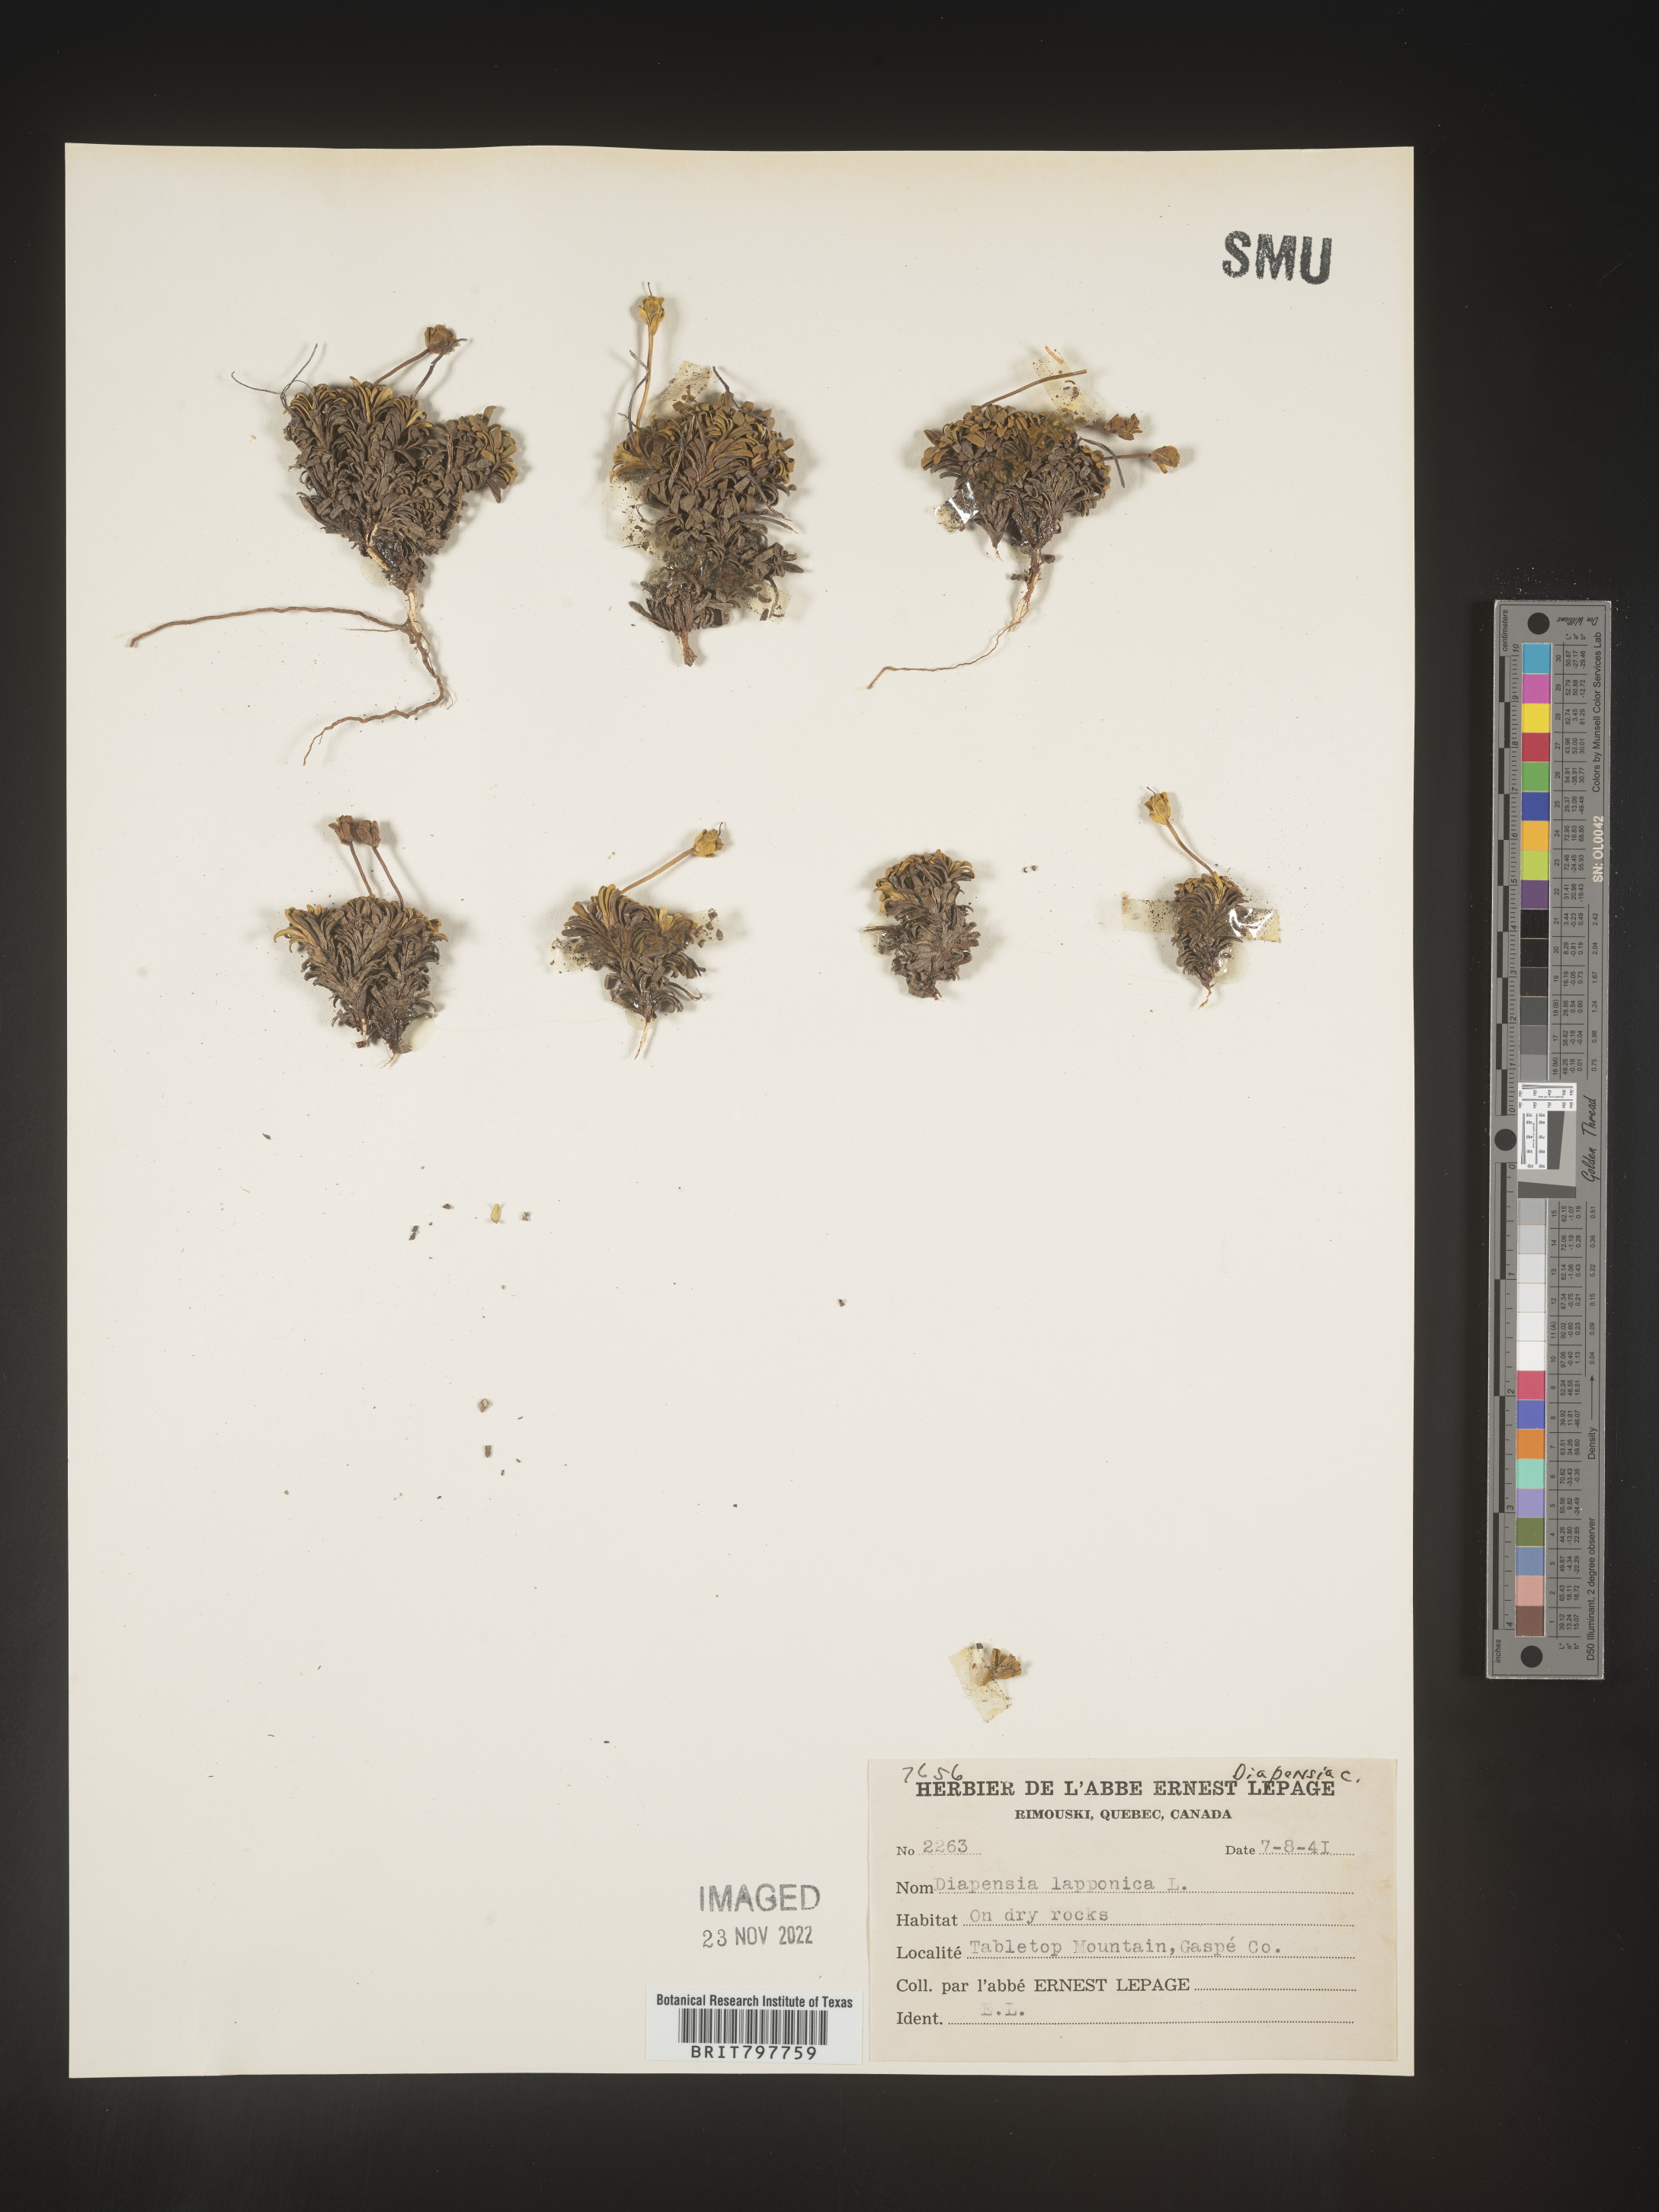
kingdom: Plantae
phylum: Tracheophyta
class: Magnoliopsida
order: Ericales
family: Diapensiaceae
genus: Diapensia
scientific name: Diapensia
